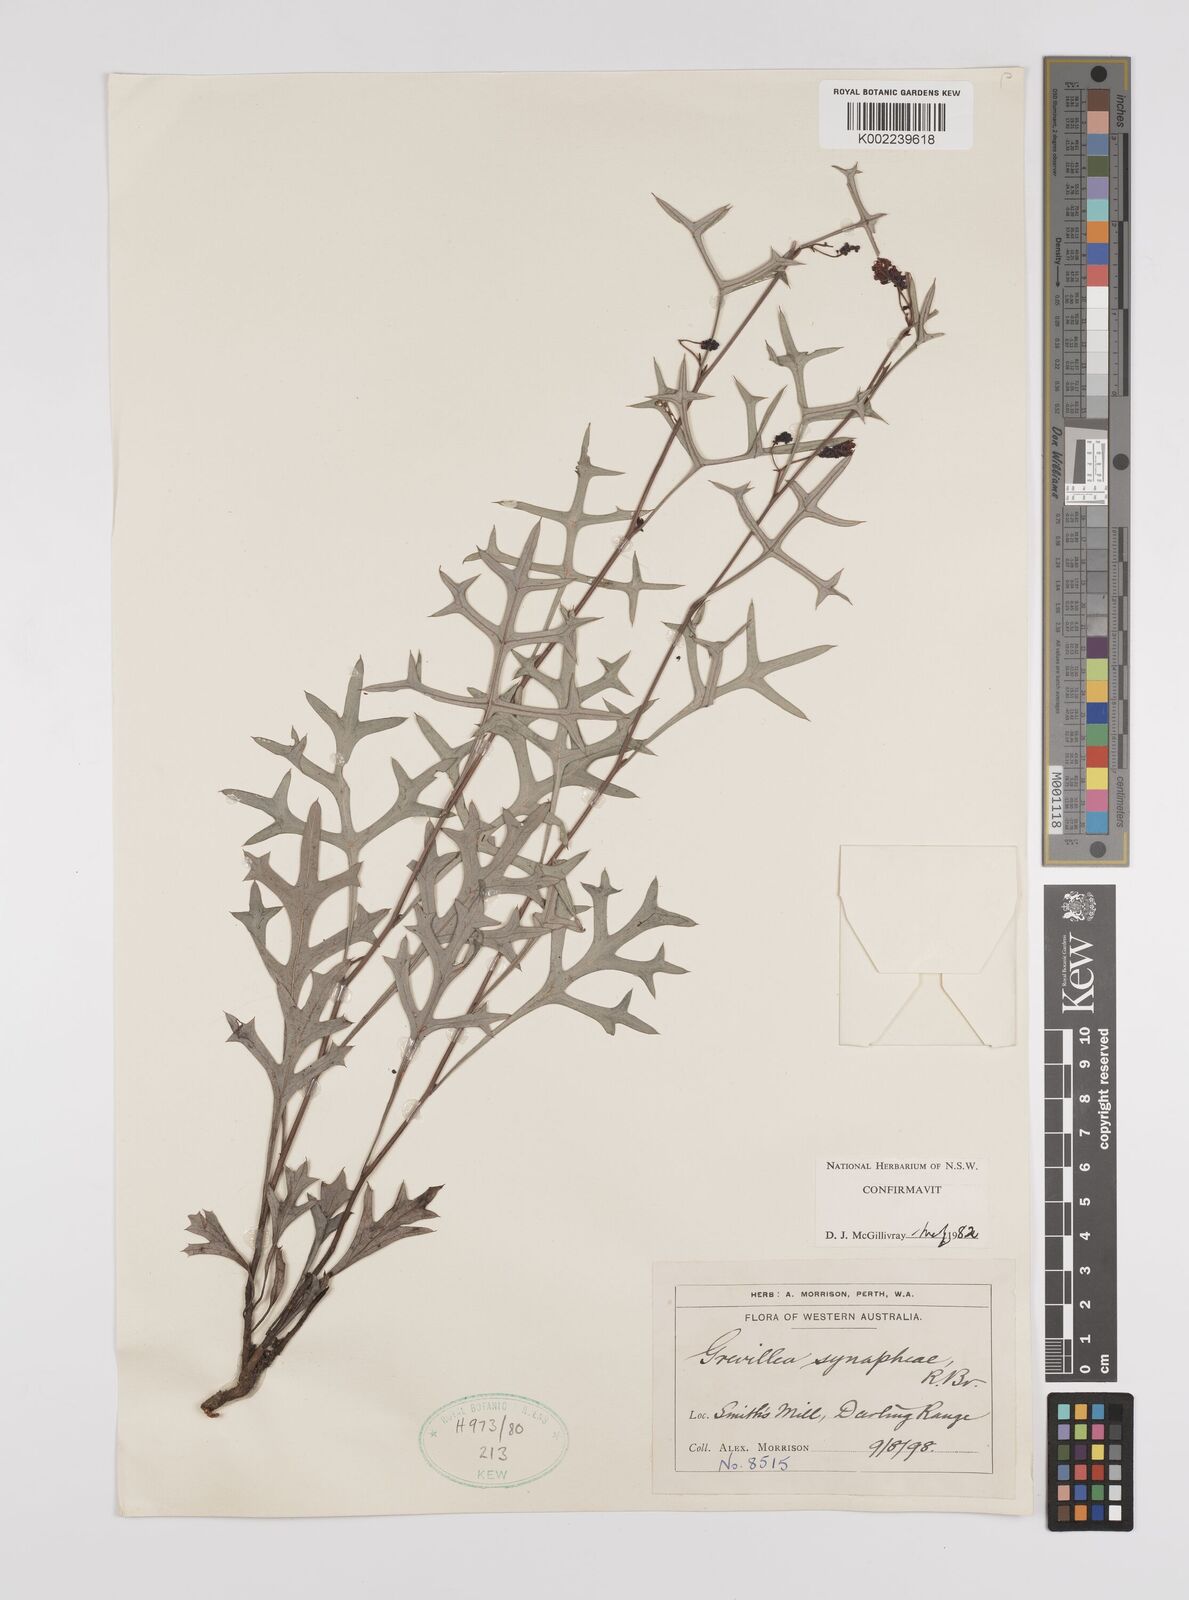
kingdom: Plantae
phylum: Tracheophyta
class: Magnoliopsida
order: Proteales
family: Proteaceae
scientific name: Proteaceae
